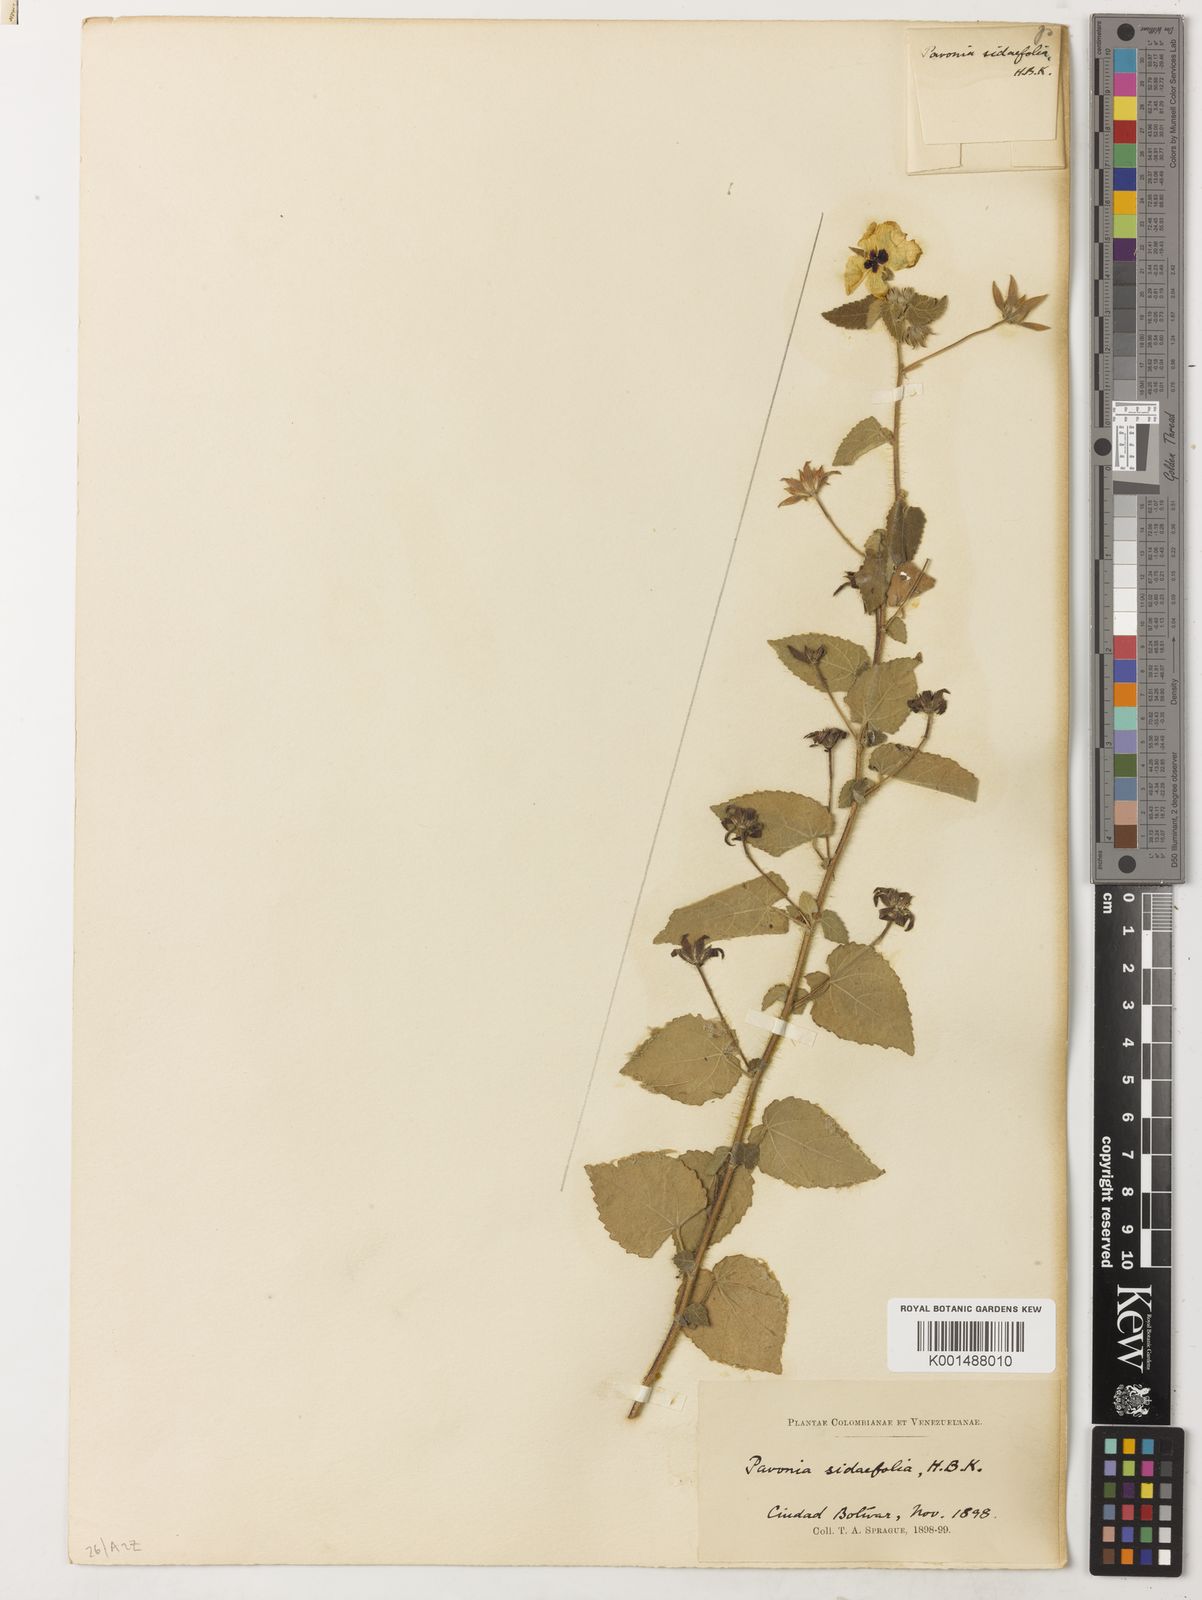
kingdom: Plantae
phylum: Tracheophyta
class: Magnoliopsida
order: Malvales
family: Malvaceae
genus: Pavonia
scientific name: Pavonia sidifolia
